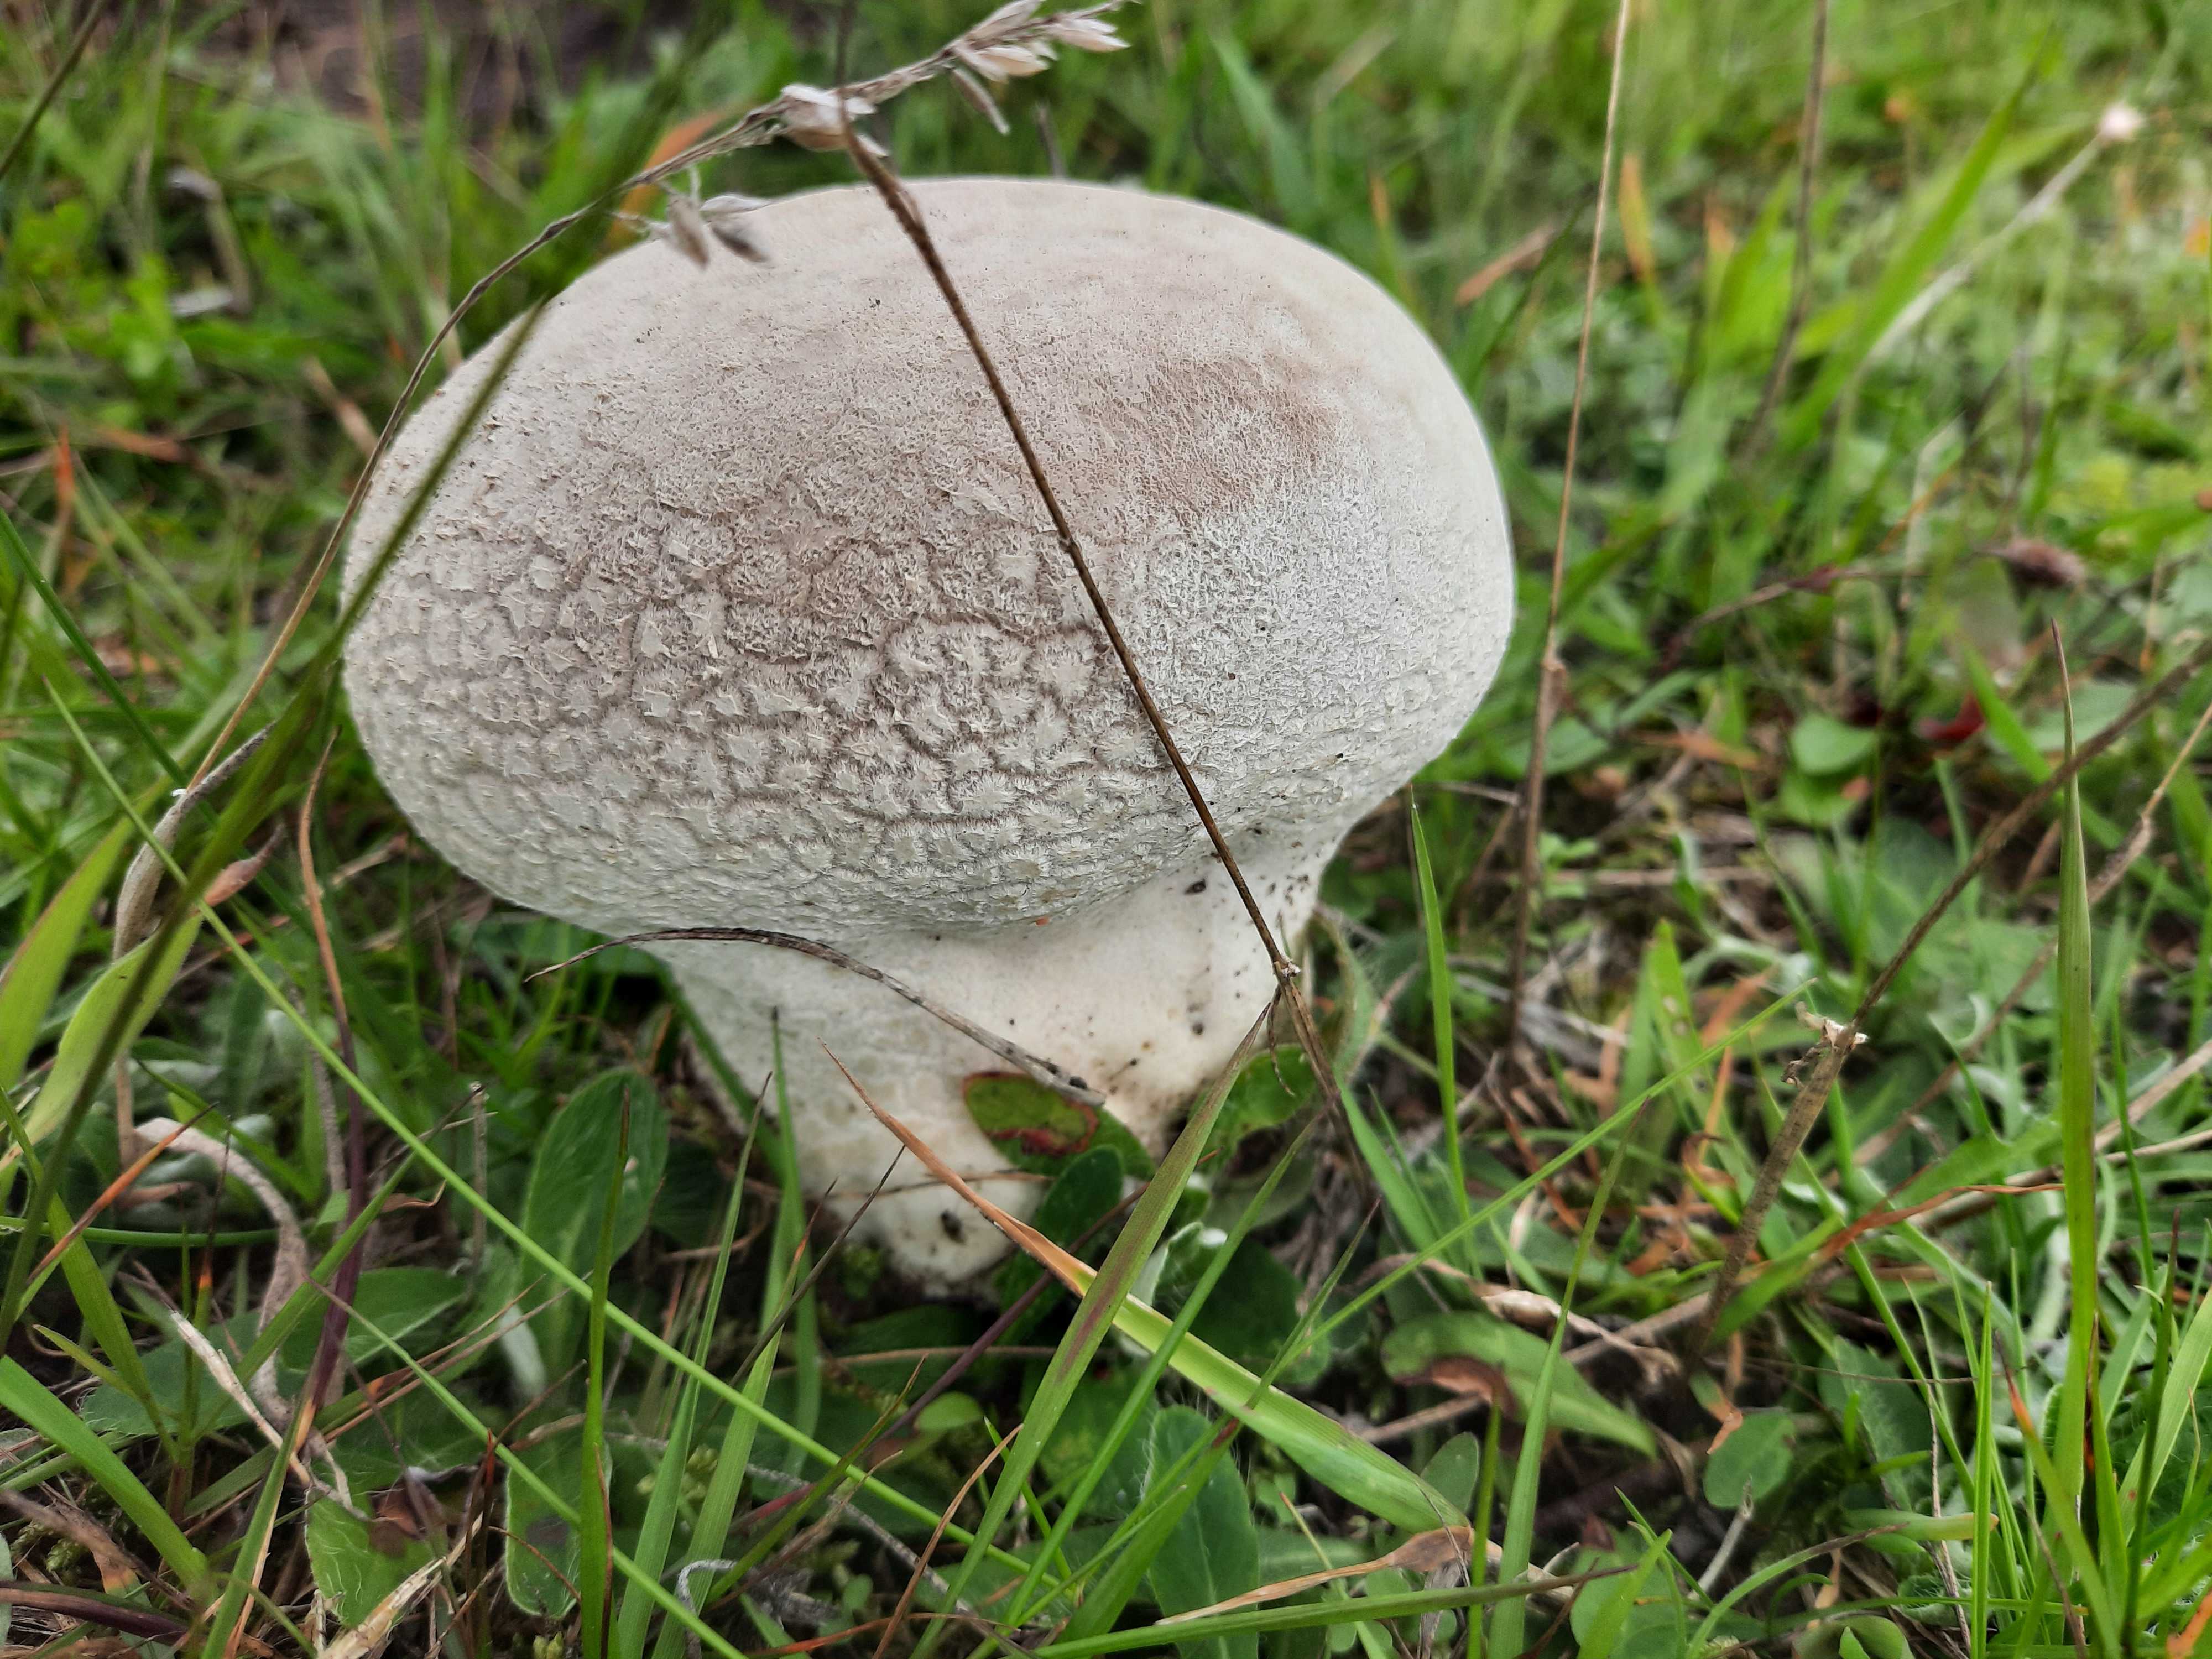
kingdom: Fungi
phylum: Basidiomycota
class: Agaricomycetes
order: Agaricales
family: Lycoperdaceae
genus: Bovistella
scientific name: Bovistella utriformis
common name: skællet støvbold
